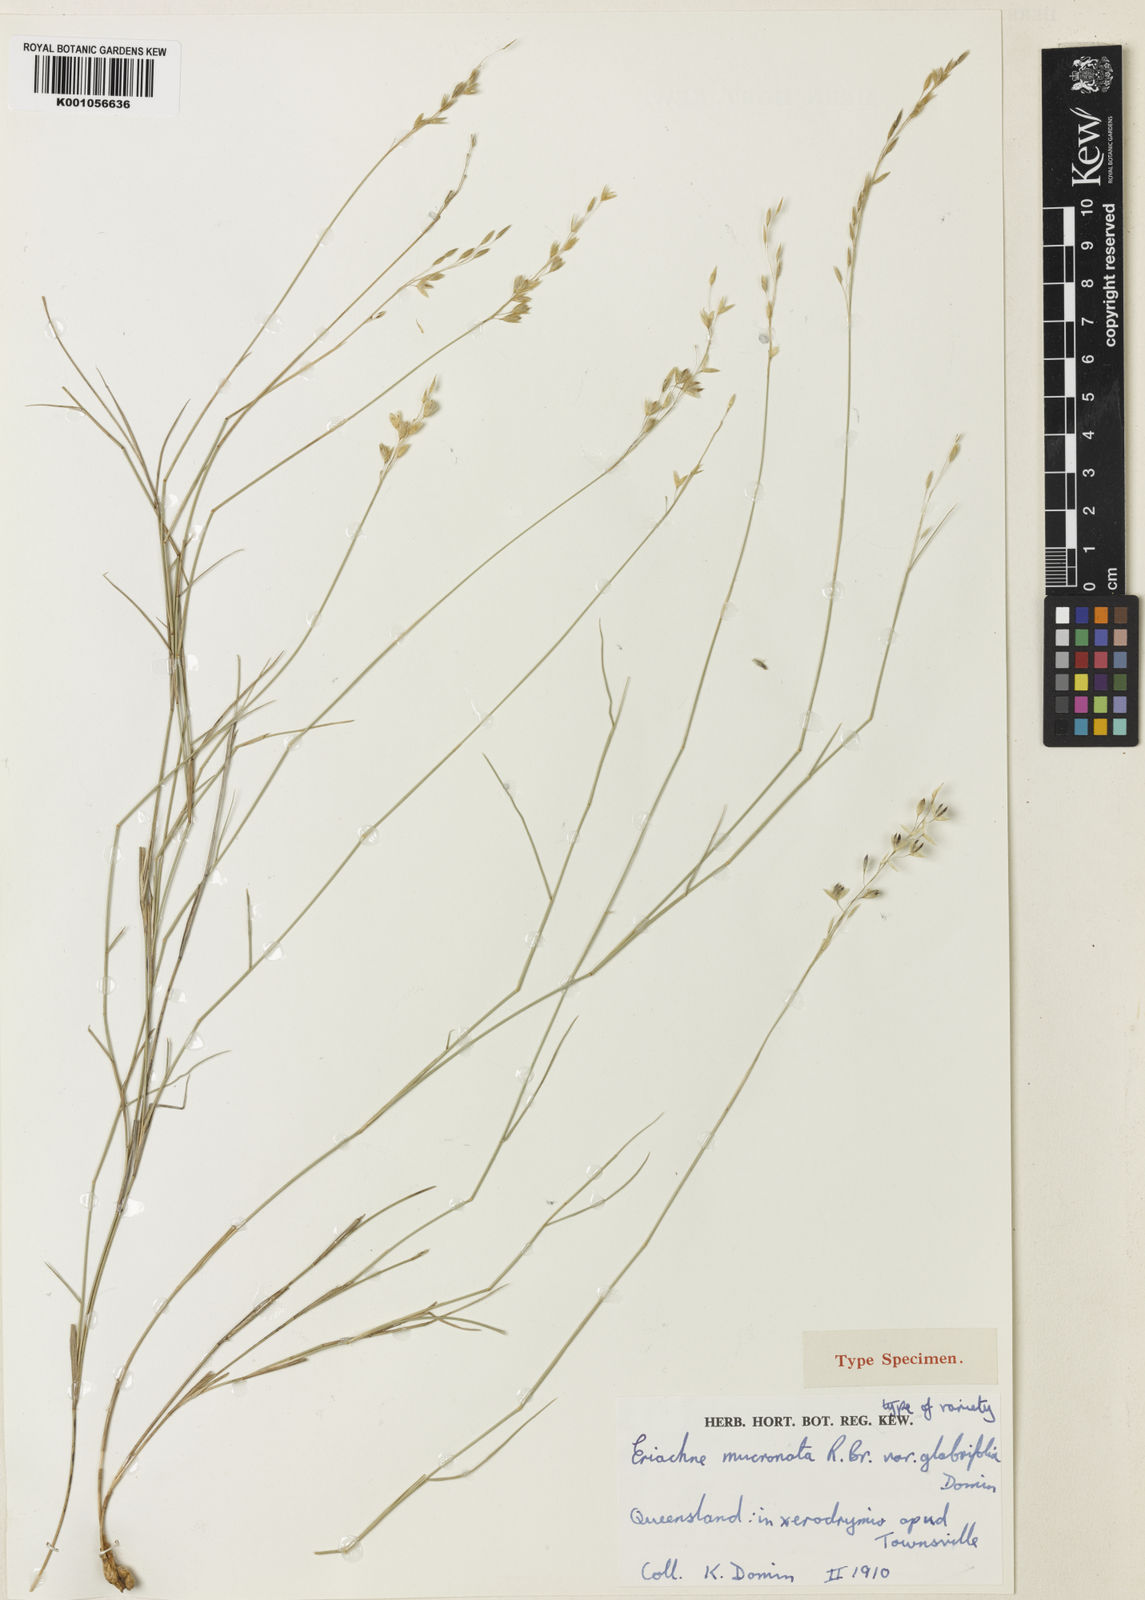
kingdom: Plantae
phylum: Tracheophyta
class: Liliopsida
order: Poales
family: Poaceae
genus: Eriachne
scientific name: Eriachne obtusa
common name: Northern wanderrie grass
